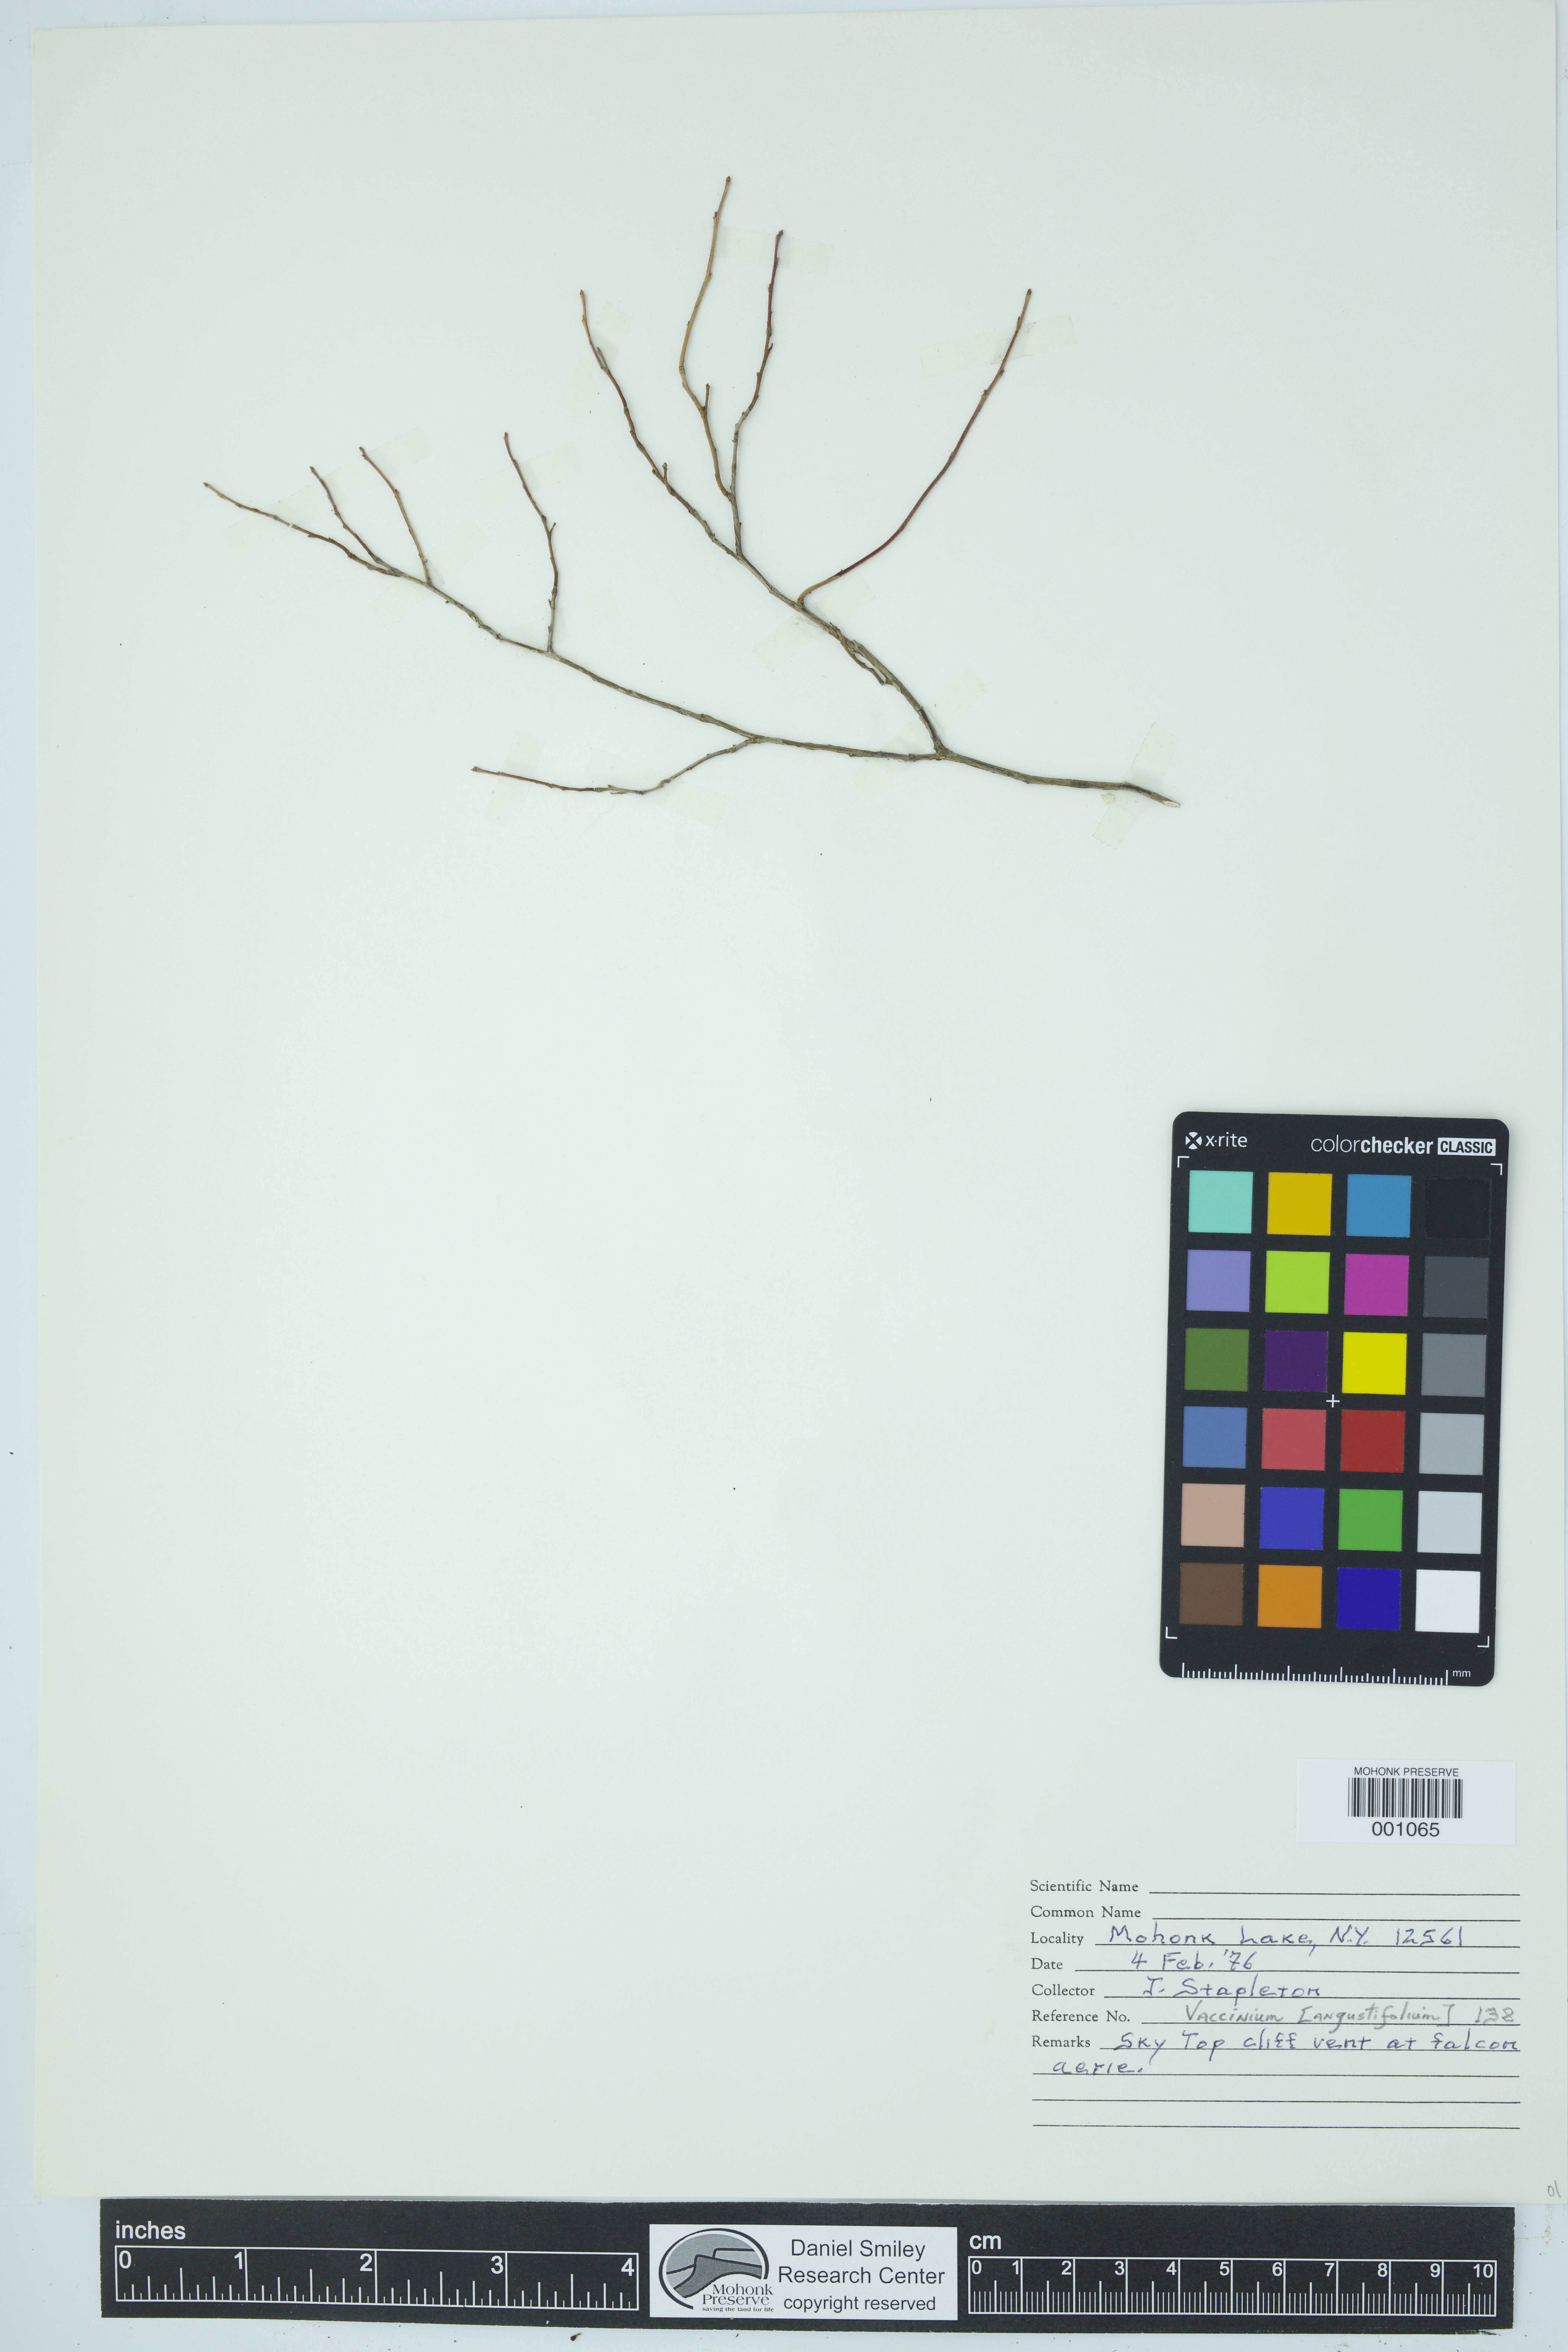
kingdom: Plantae
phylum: Tracheophyta
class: Magnoliopsida
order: Ericales
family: Ericaceae
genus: Vaccinium
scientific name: Vaccinium angustifolium
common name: Early lowbush blueberry
